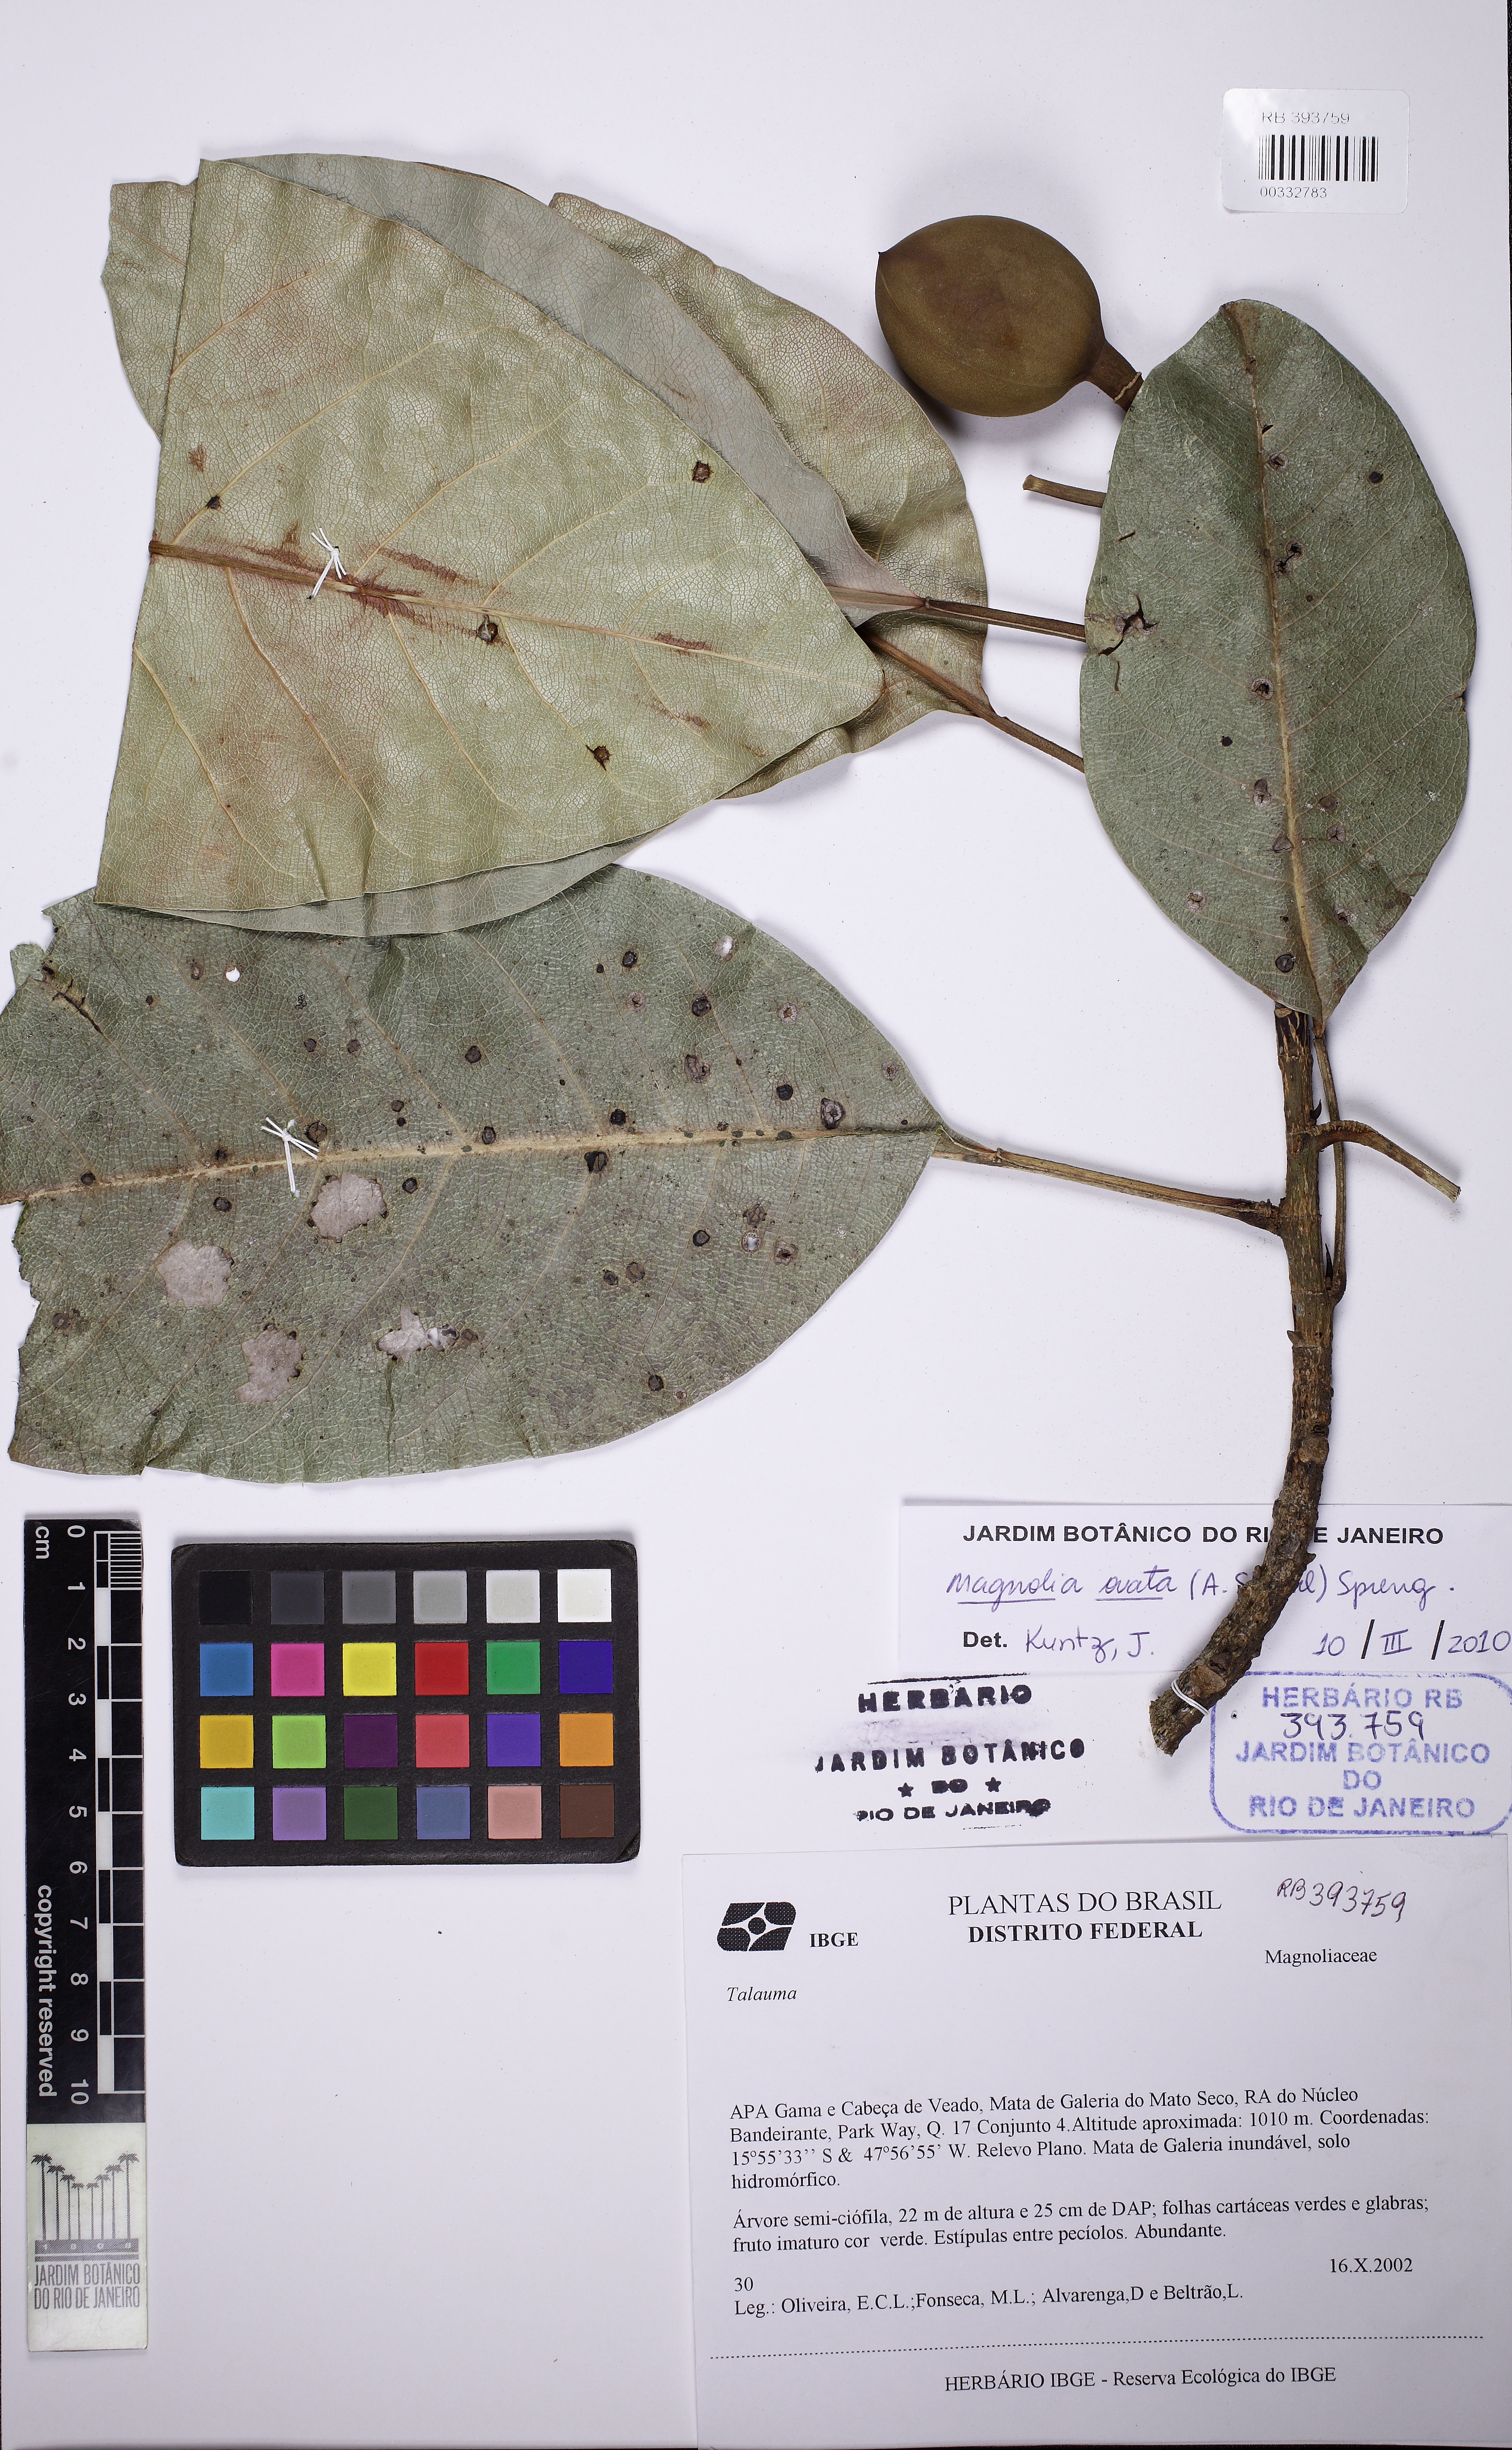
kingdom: Plantae
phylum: Tracheophyta
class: Magnoliopsida
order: Magnoliales
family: Magnoliaceae
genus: Magnolia
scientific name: Magnolia ovata
